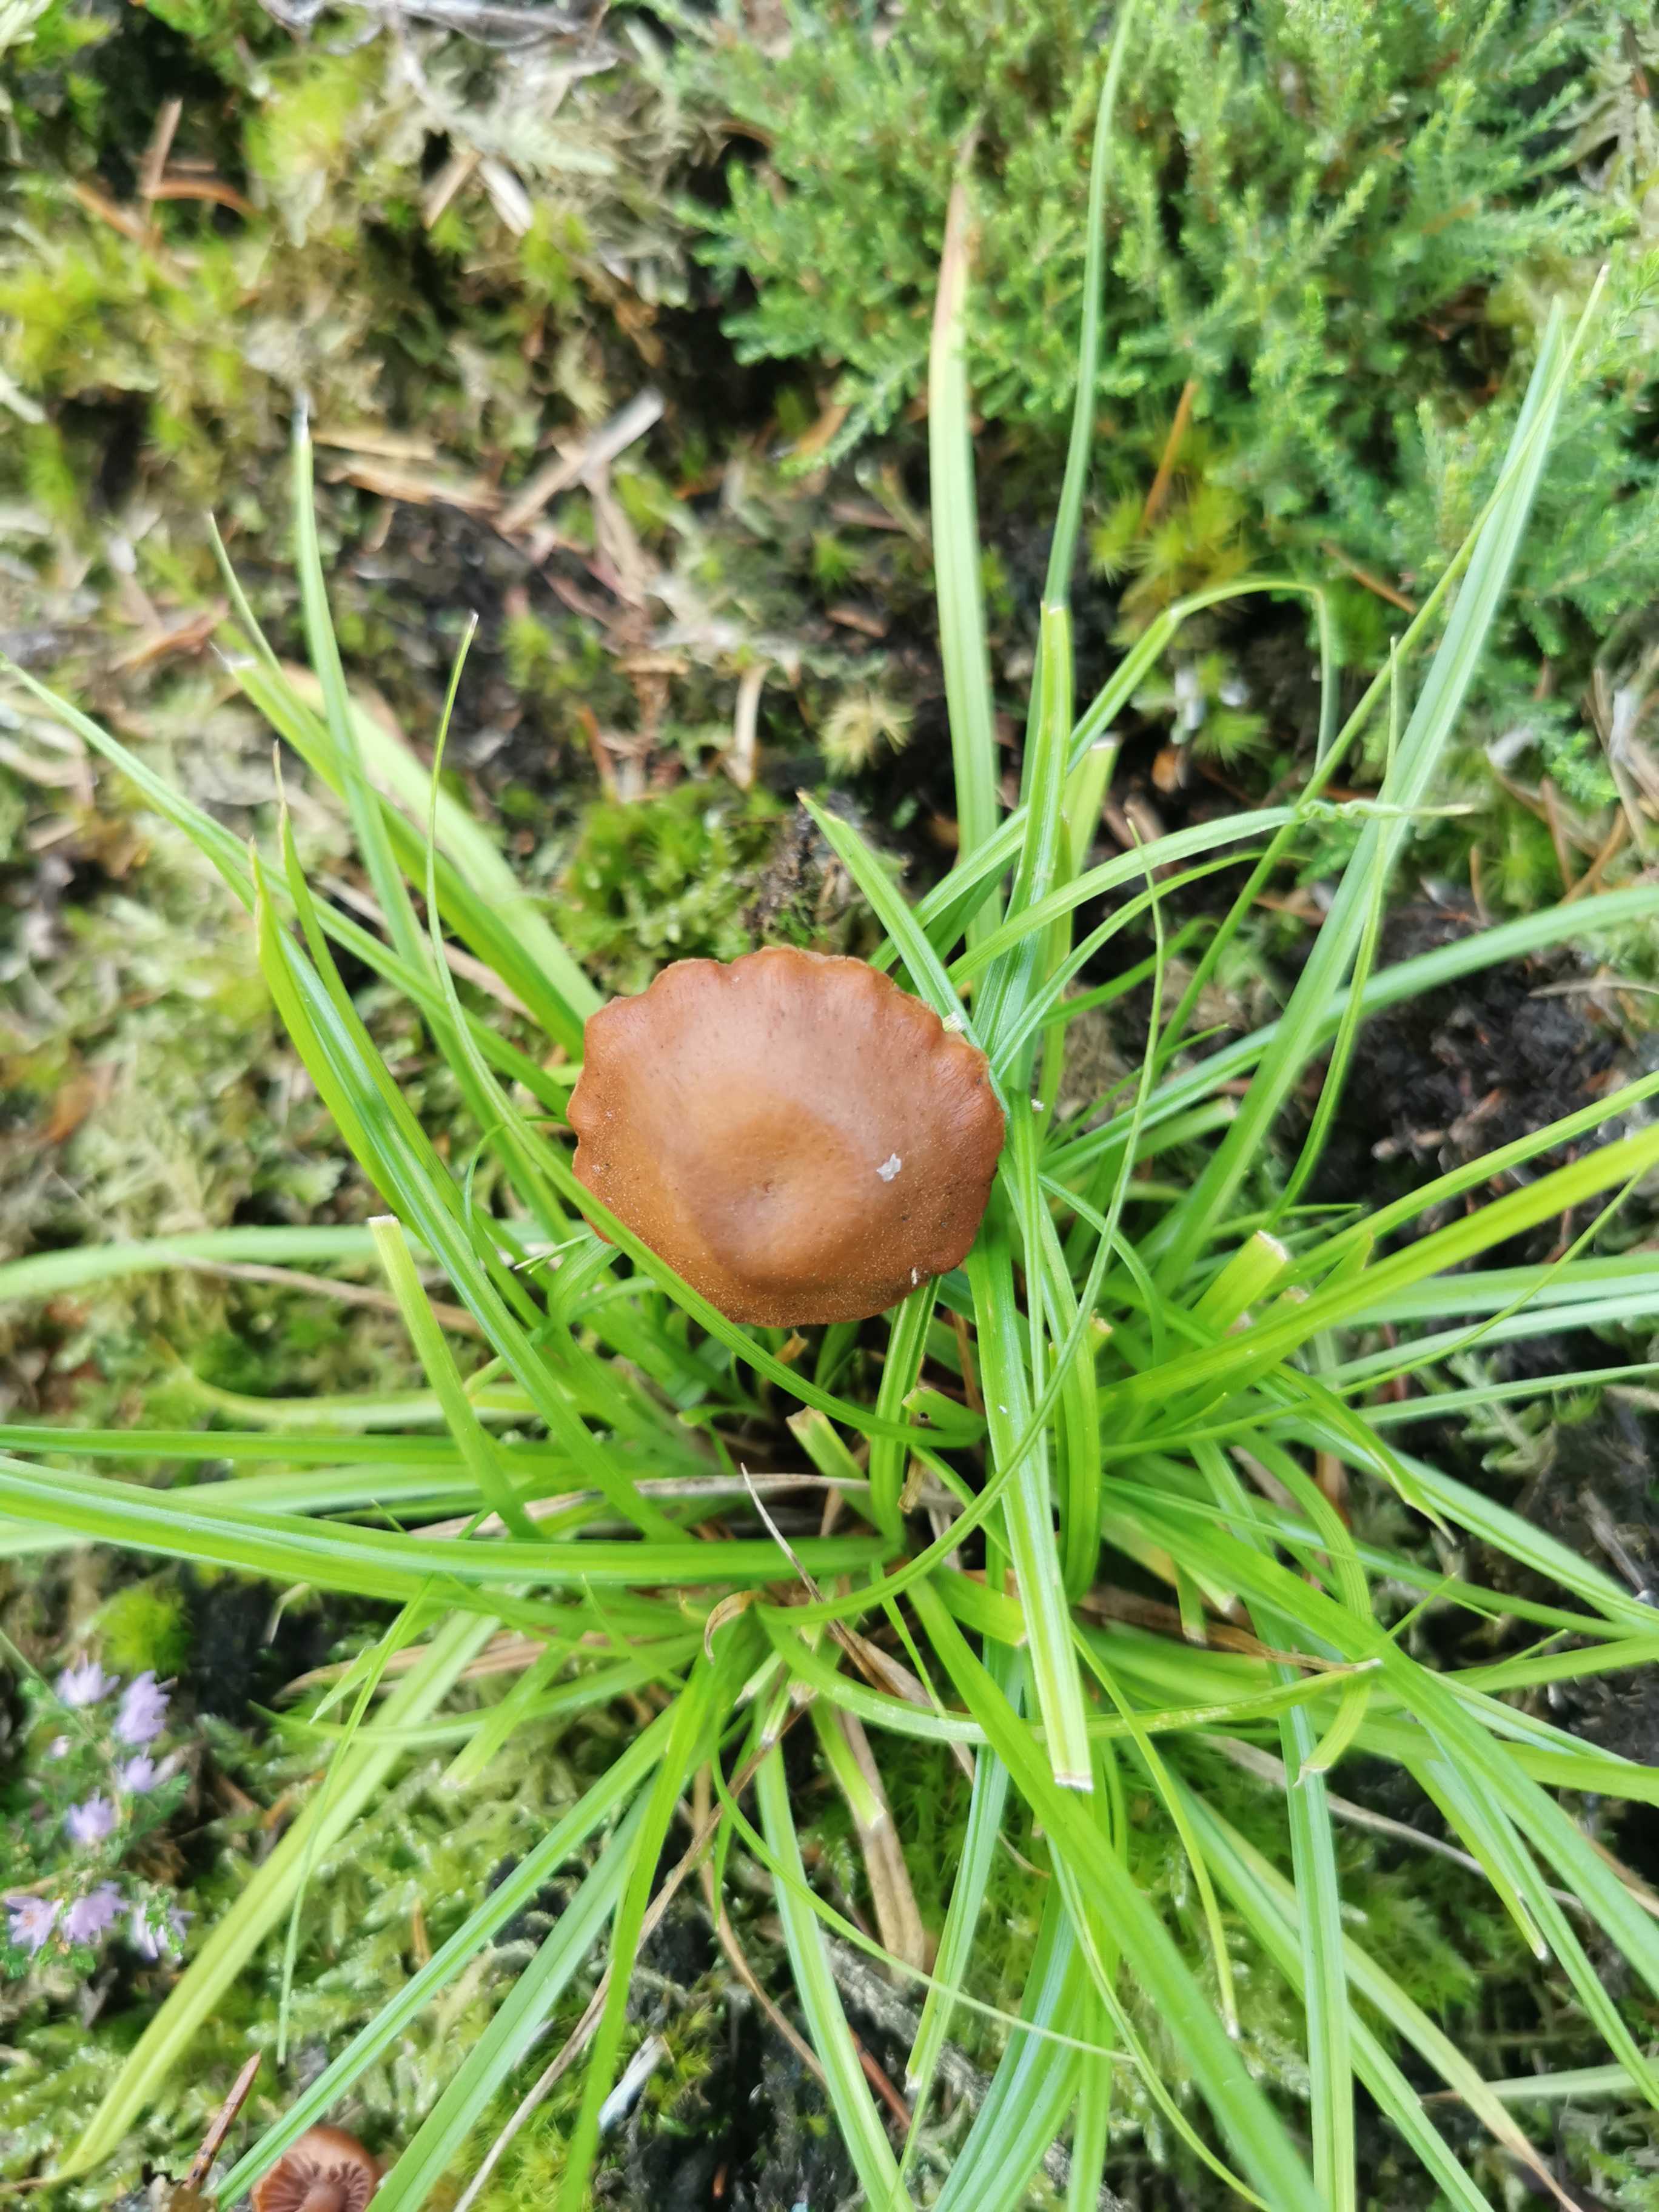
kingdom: Fungi
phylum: Basidiomycota
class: Agaricomycetes
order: Agaricales
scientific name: Agaricales
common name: champignonordenen
